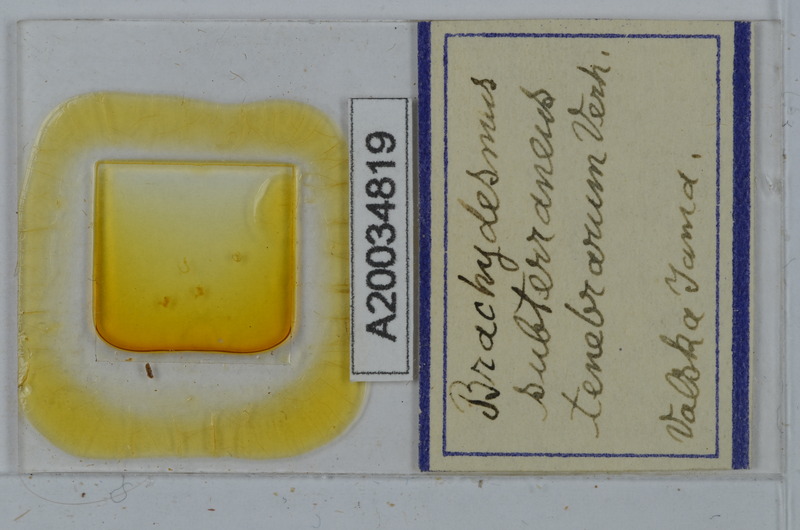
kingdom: Animalia
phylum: Arthropoda
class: Diplopoda
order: Polydesmida
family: Polydesmidae
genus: Brachydesmus
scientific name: Brachydesmus subterraneus
